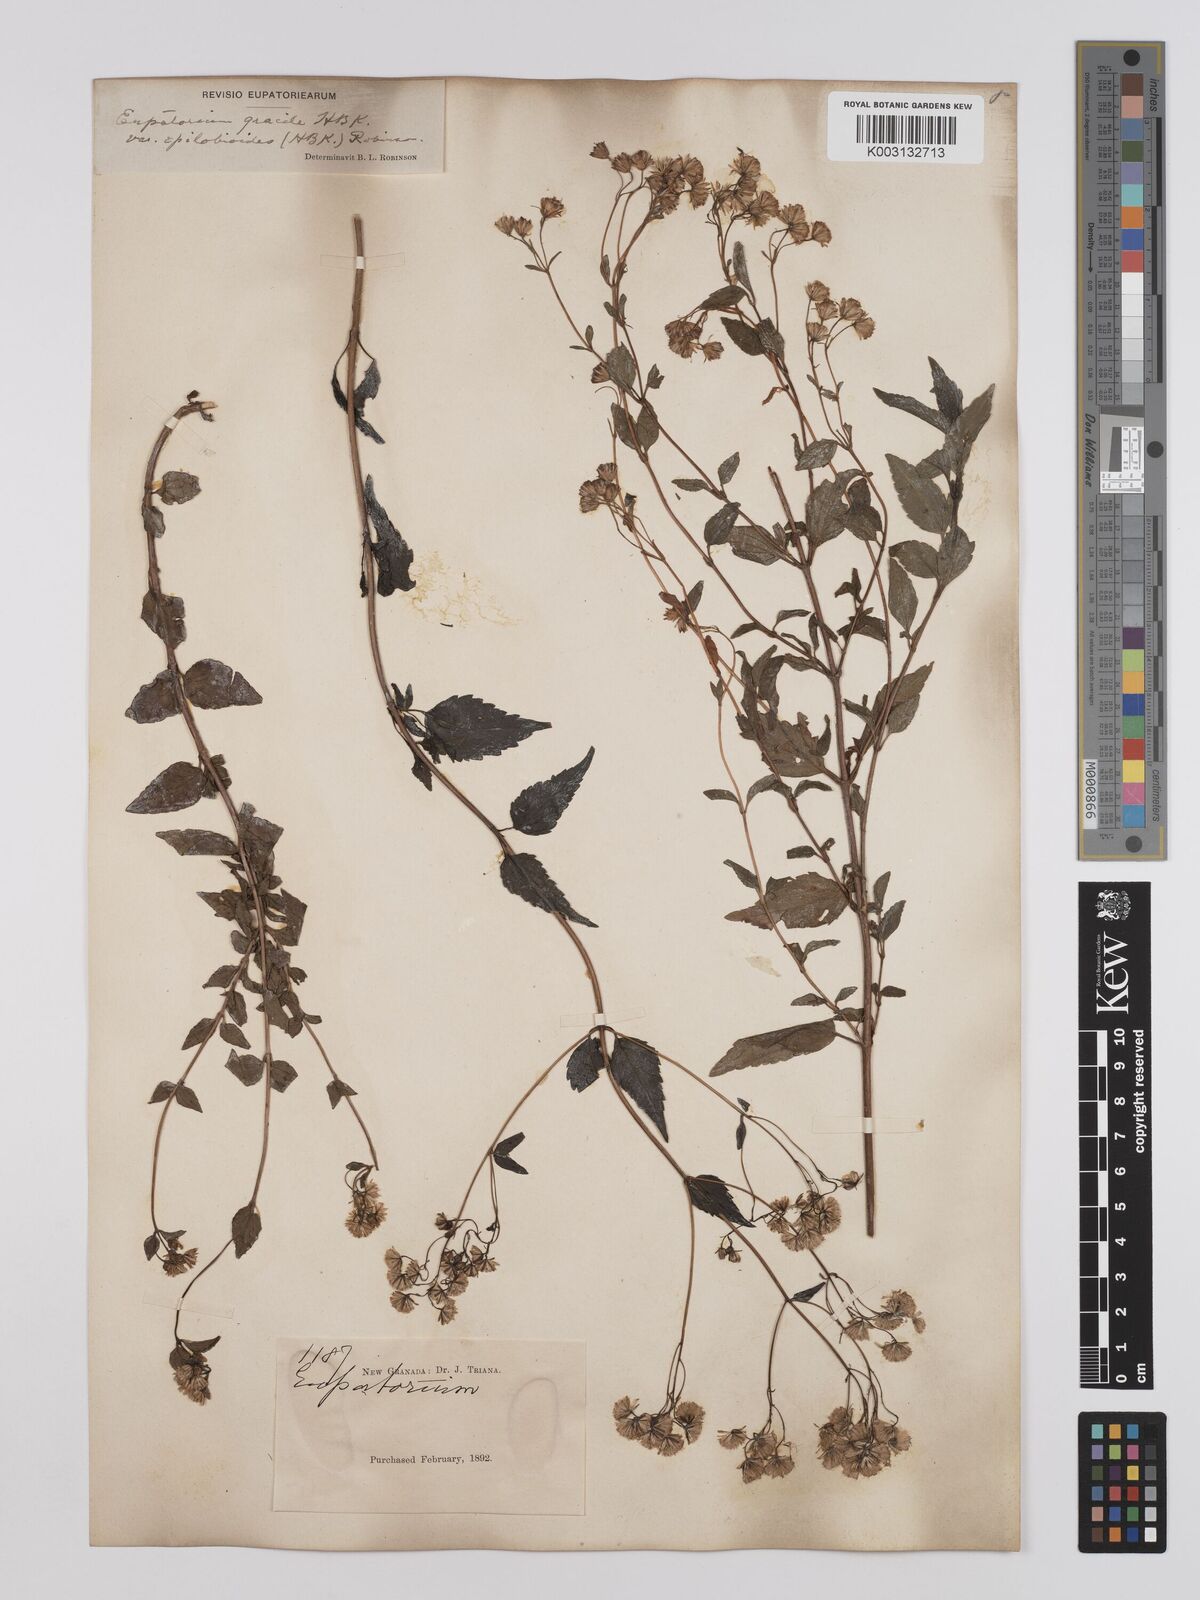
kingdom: Plantae
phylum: Tracheophyta
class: Magnoliopsida
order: Asterales
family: Asteraceae
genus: Ageratina
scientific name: Ageratina gracilis
